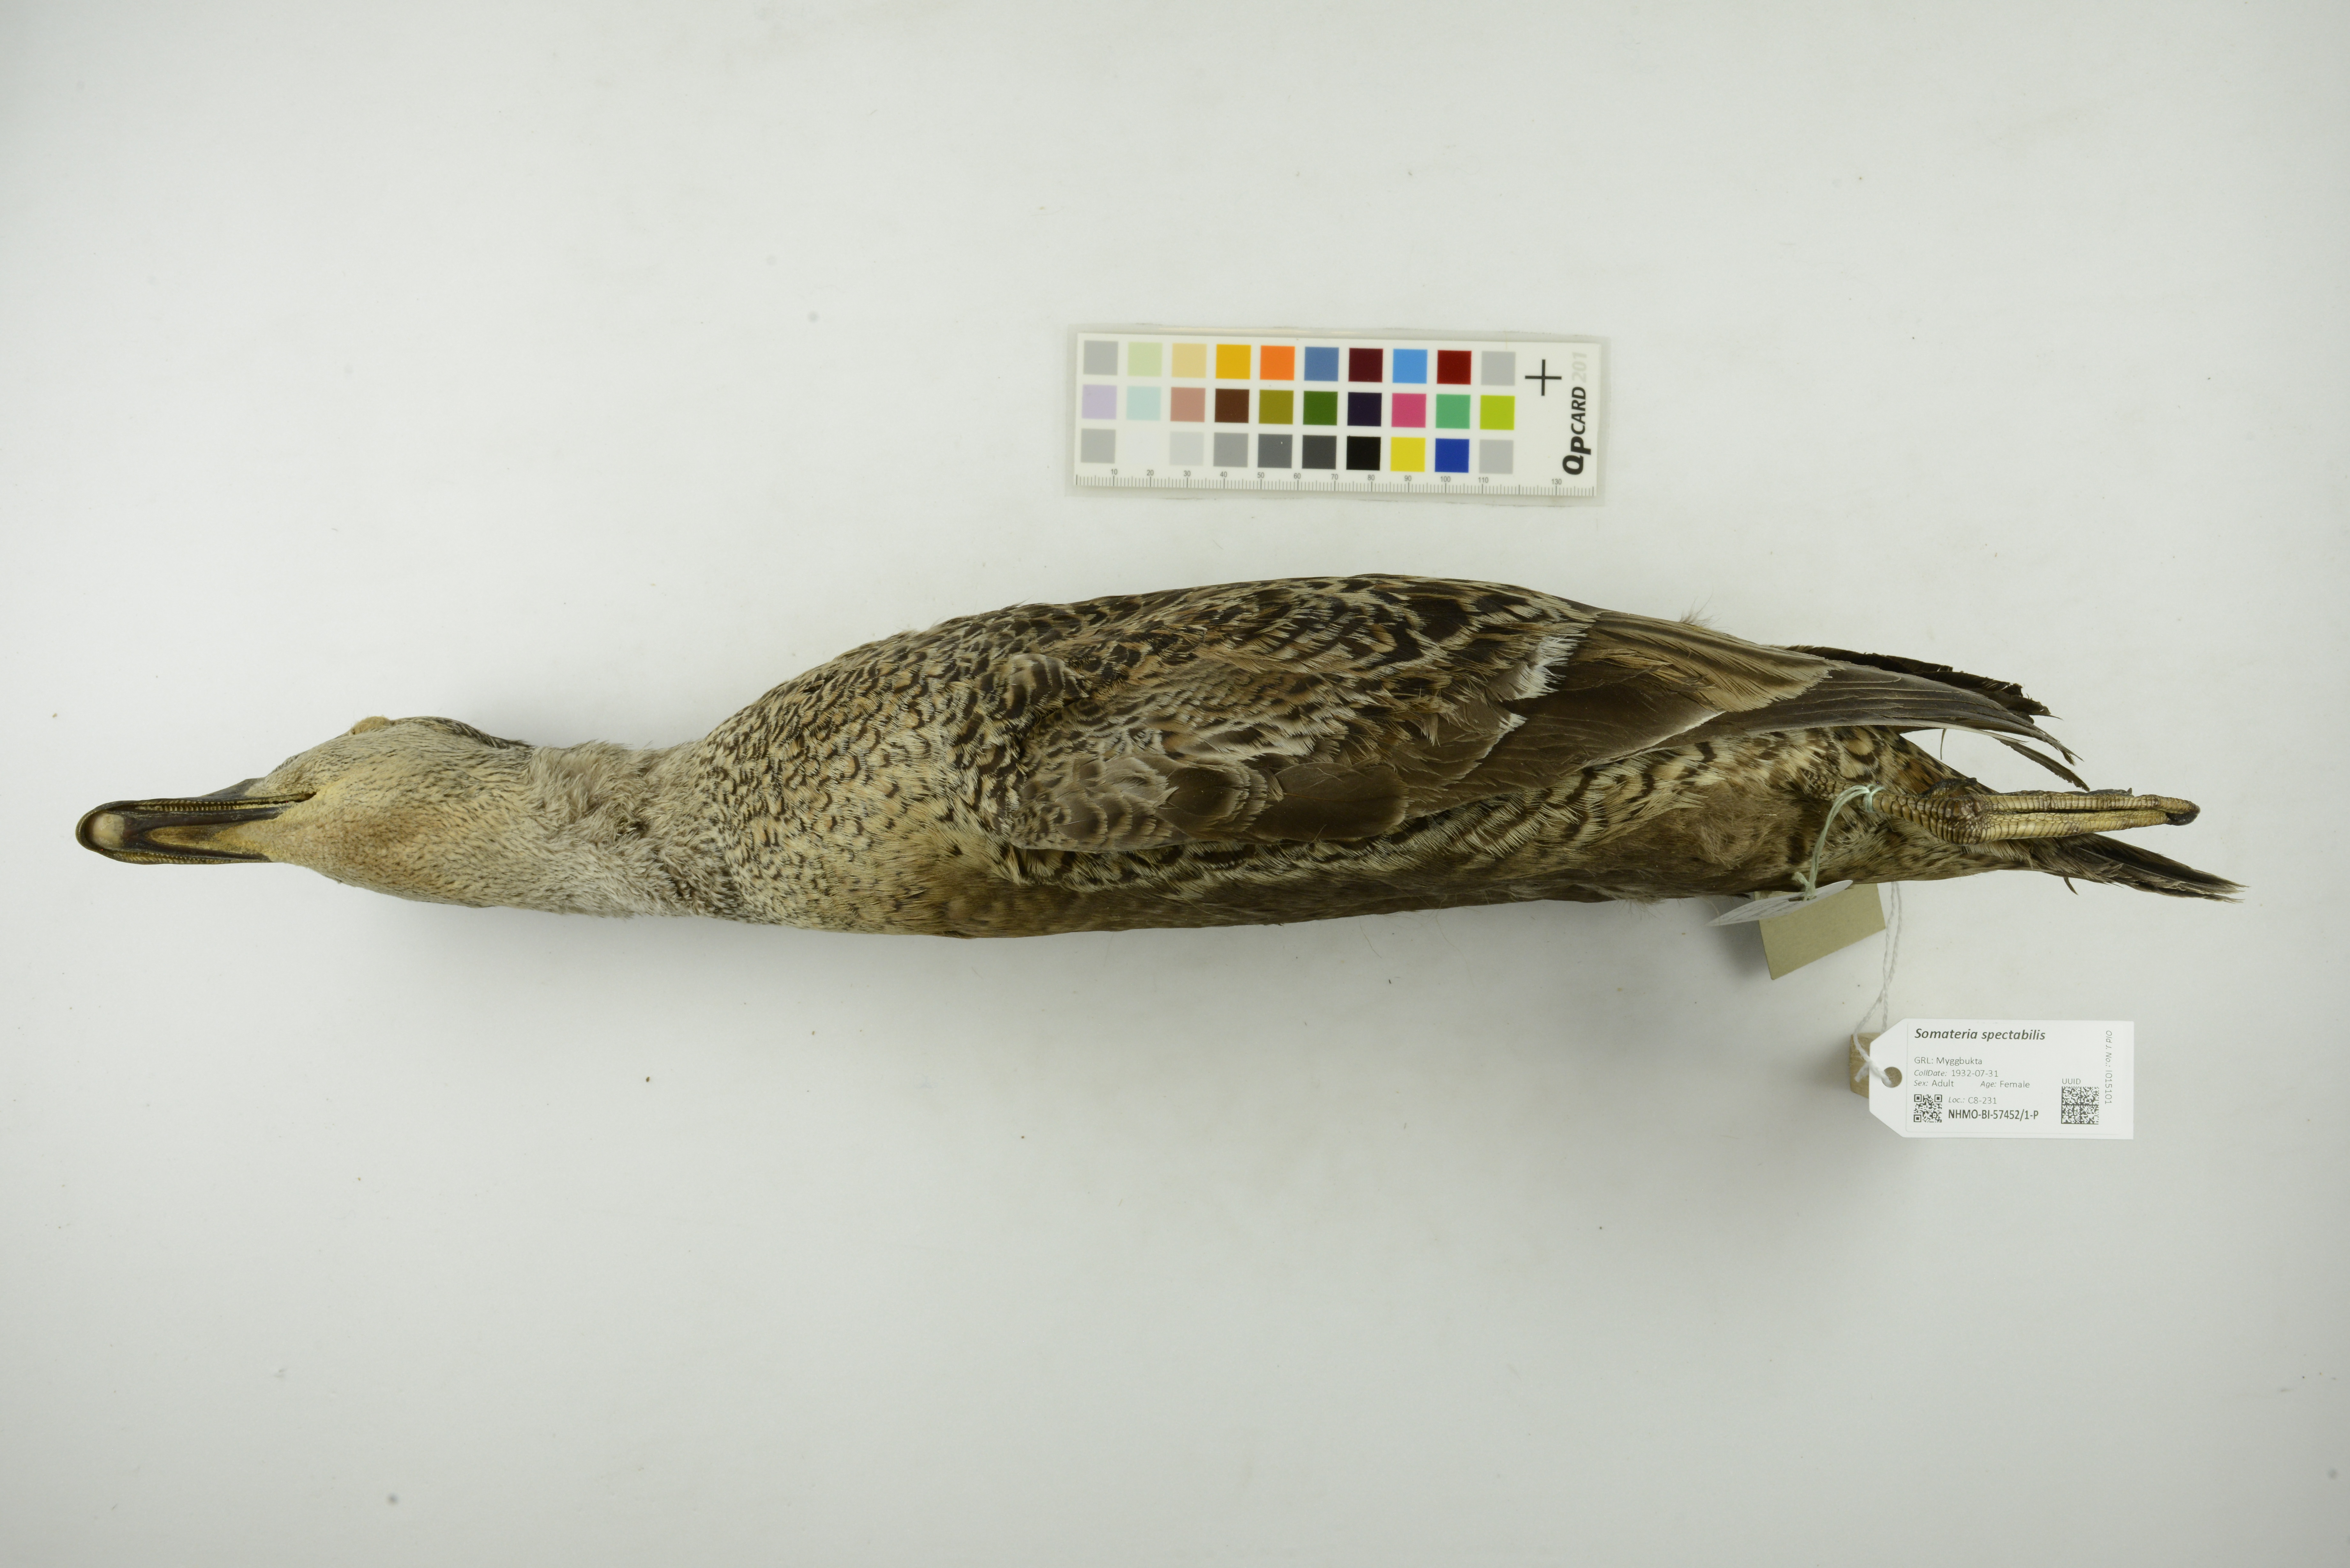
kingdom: Animalia
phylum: Chordata
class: Aves
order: Anseriformes
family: Anatidae
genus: Somateria
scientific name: Somateria spectabilis
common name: King eider
